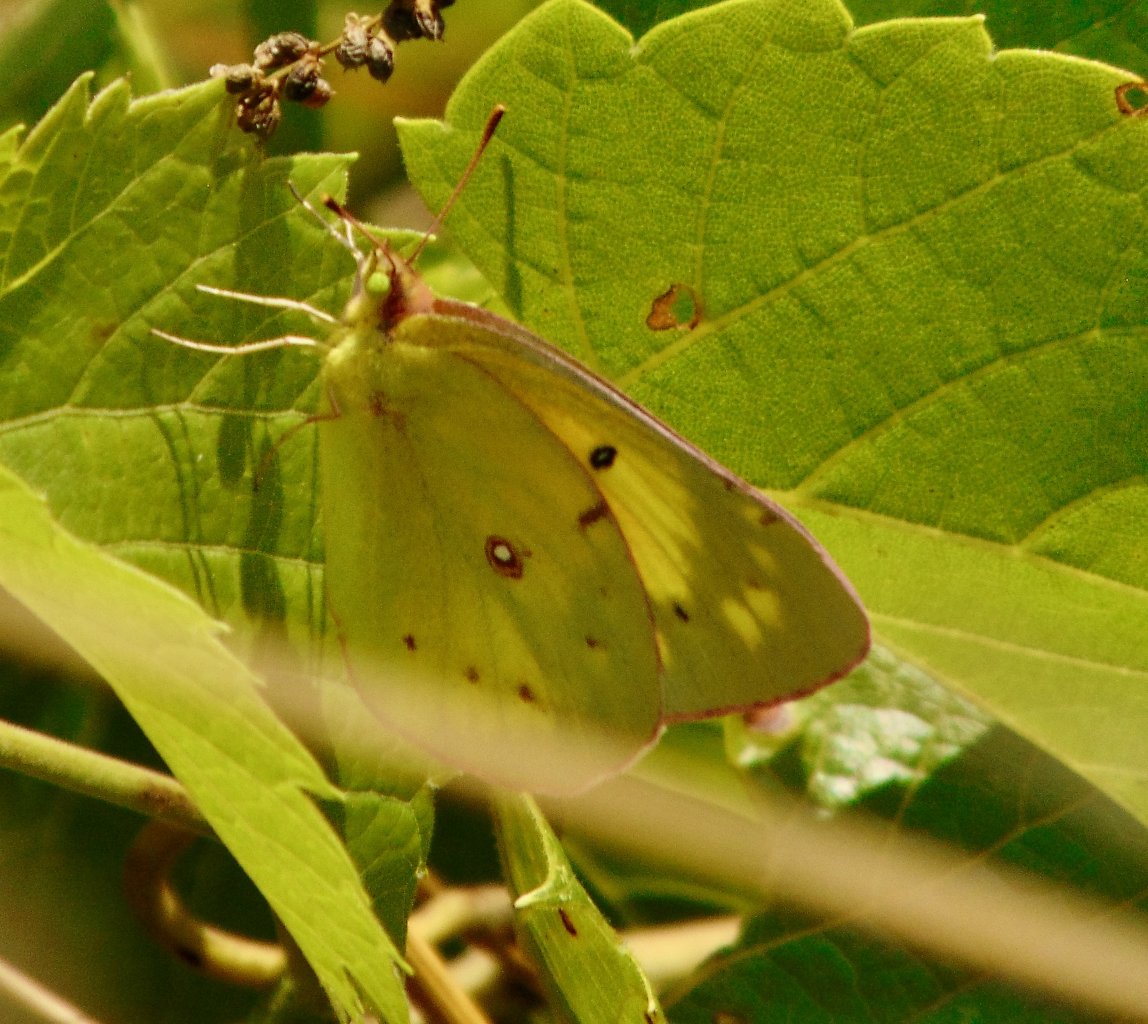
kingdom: Animalia
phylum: Arthropoda
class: Insecta
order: Lepidoptera
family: Pieridae
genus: Colias
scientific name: Colias philodice
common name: Clouded Sulphur
